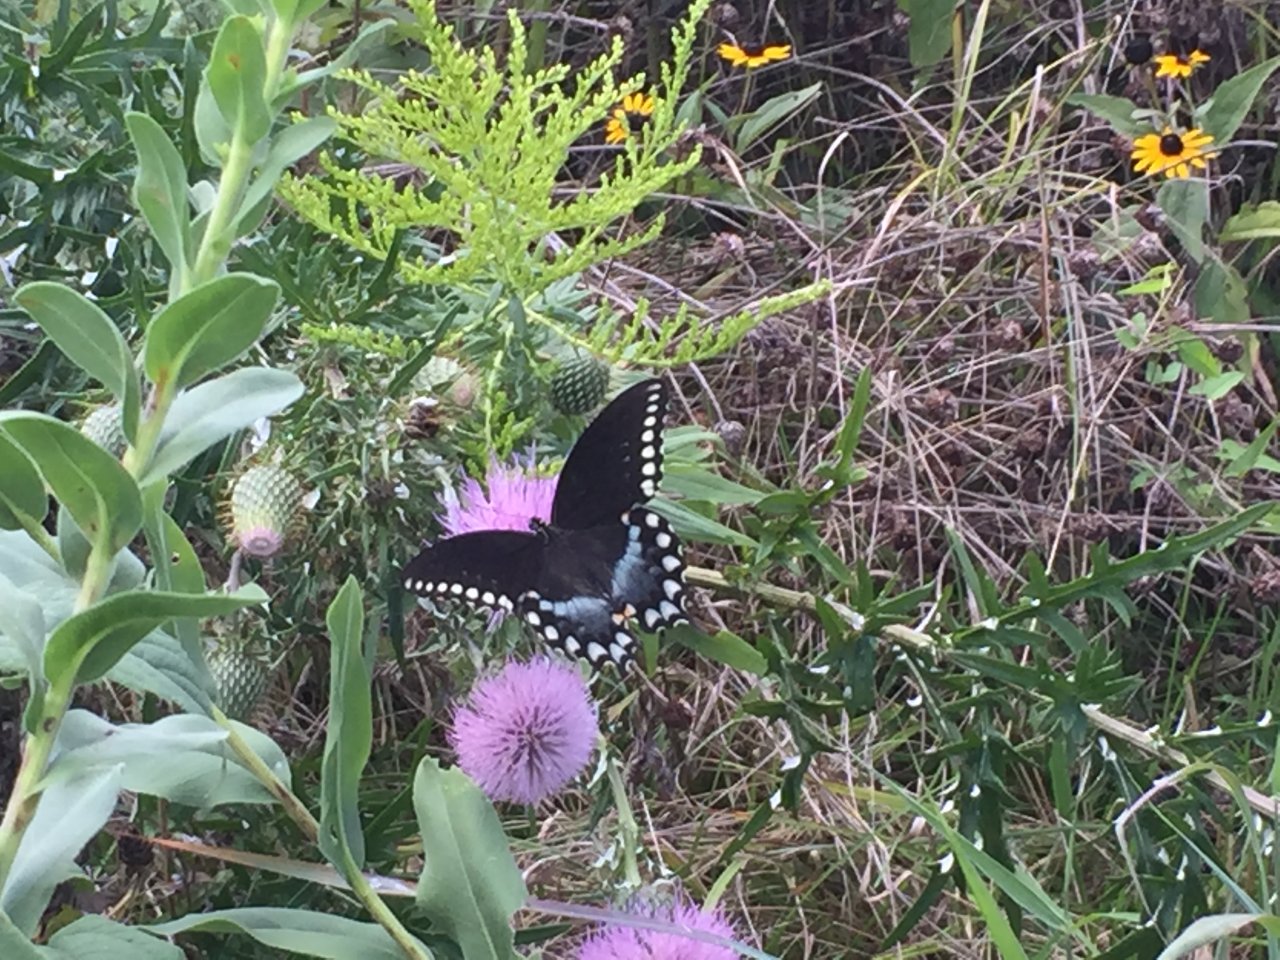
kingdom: Animalia
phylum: Arthropoda
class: Insecta
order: Lepidoptera
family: Papilionidae
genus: Pterourus
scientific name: Pterourus troilus
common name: Spicebush Swallowtail
